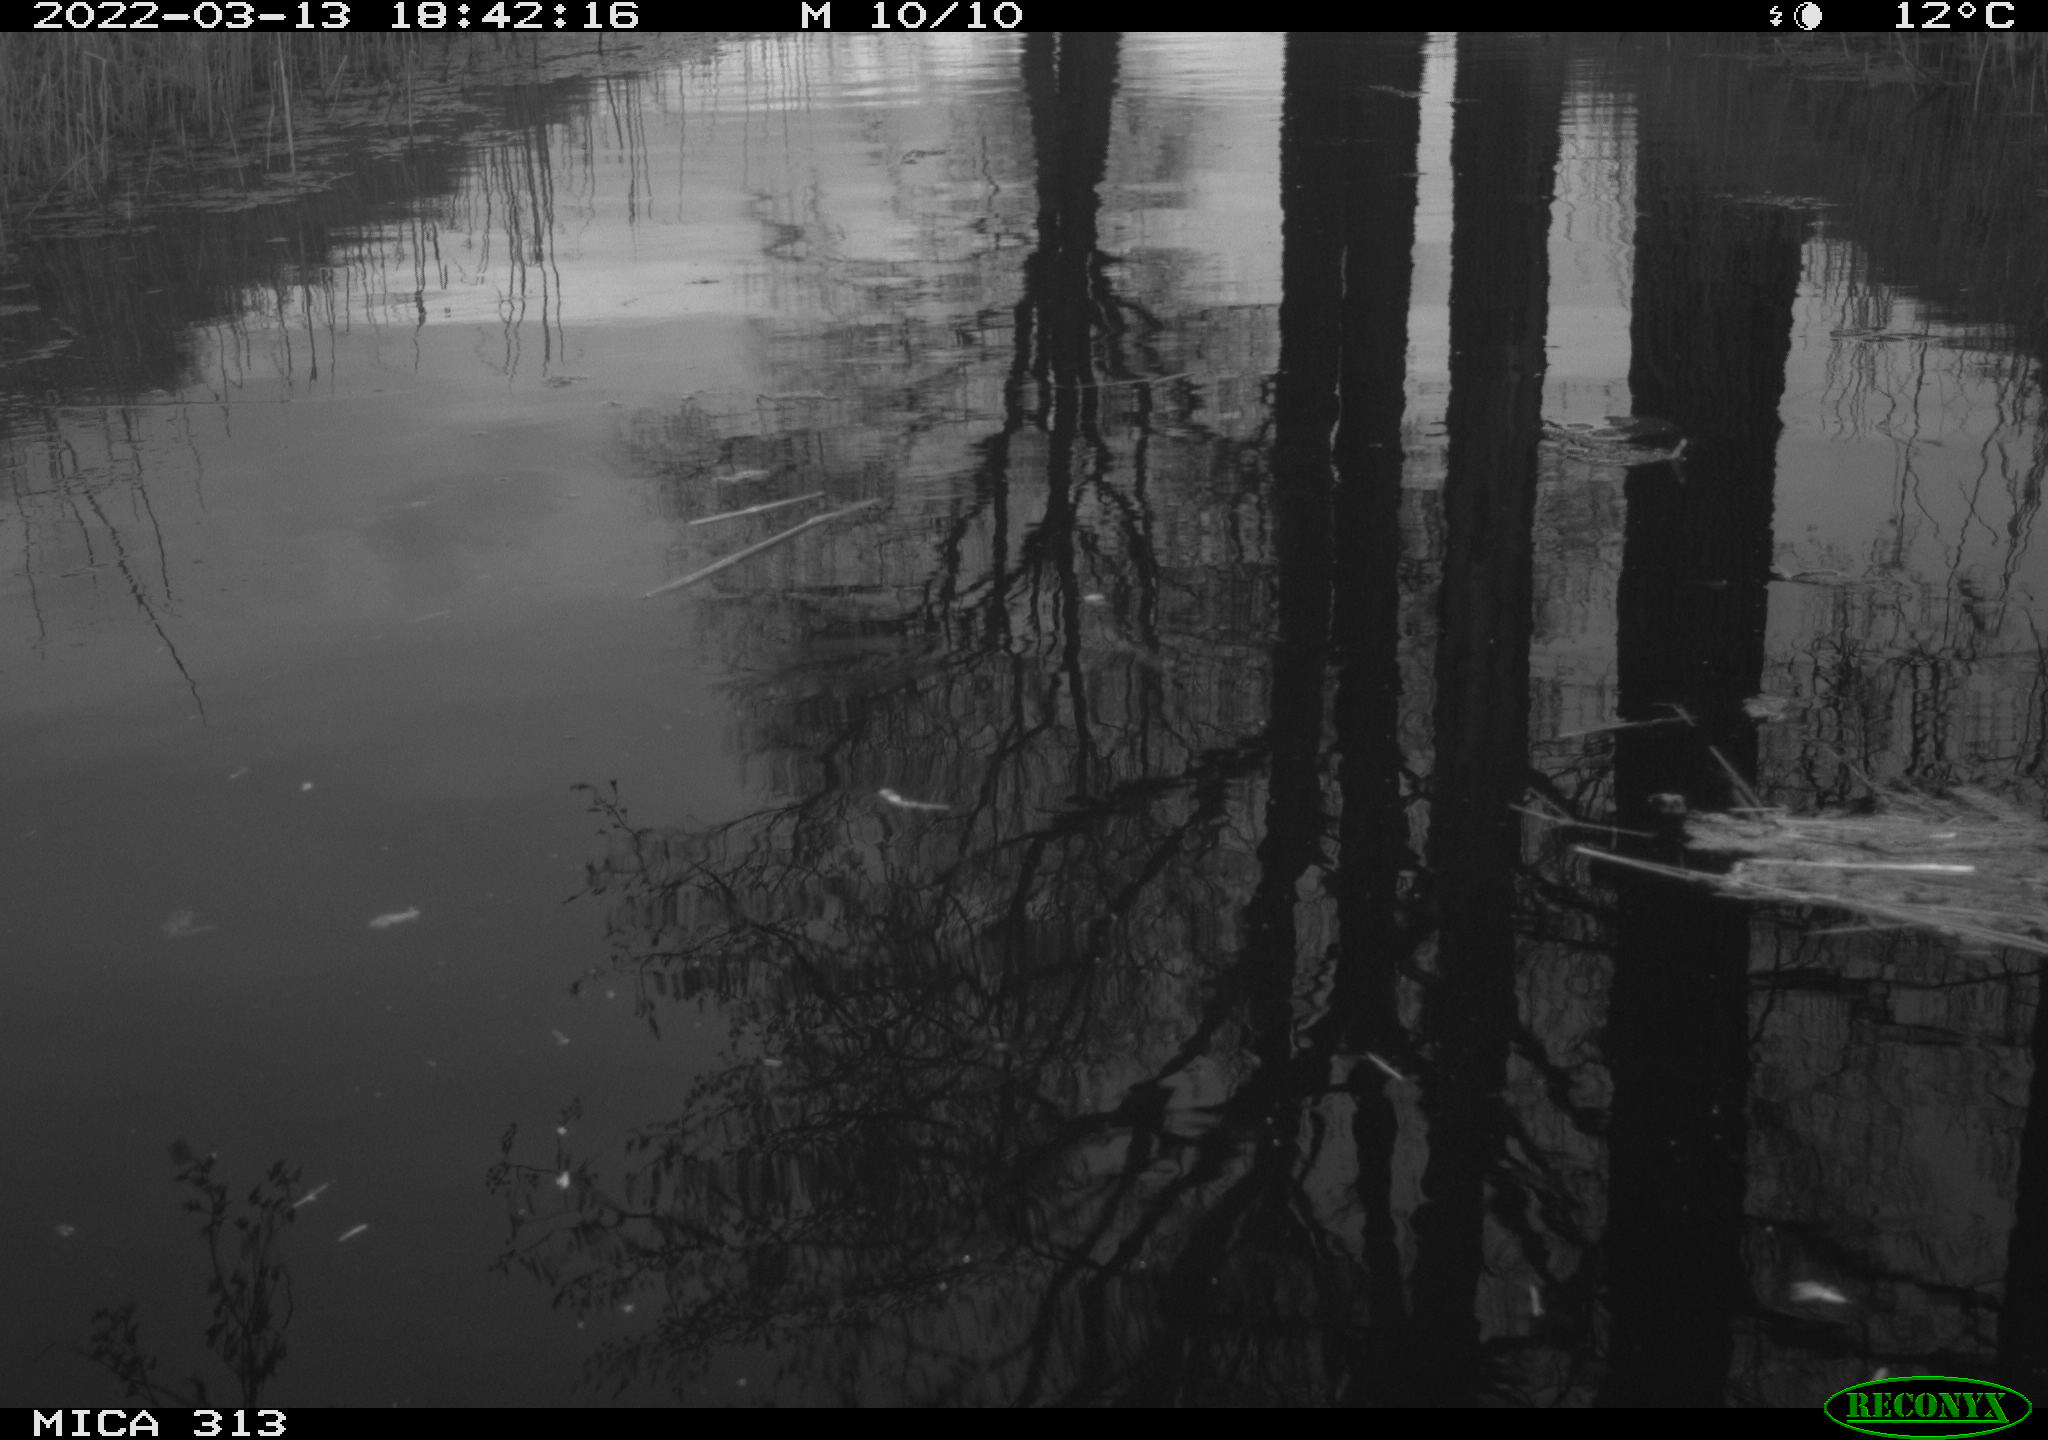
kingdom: Animalia
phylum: Chordata
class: Aves
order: Gruiformes
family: Rallidae
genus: Gallinula
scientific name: Gallinula chloropus
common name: Common moorhen
